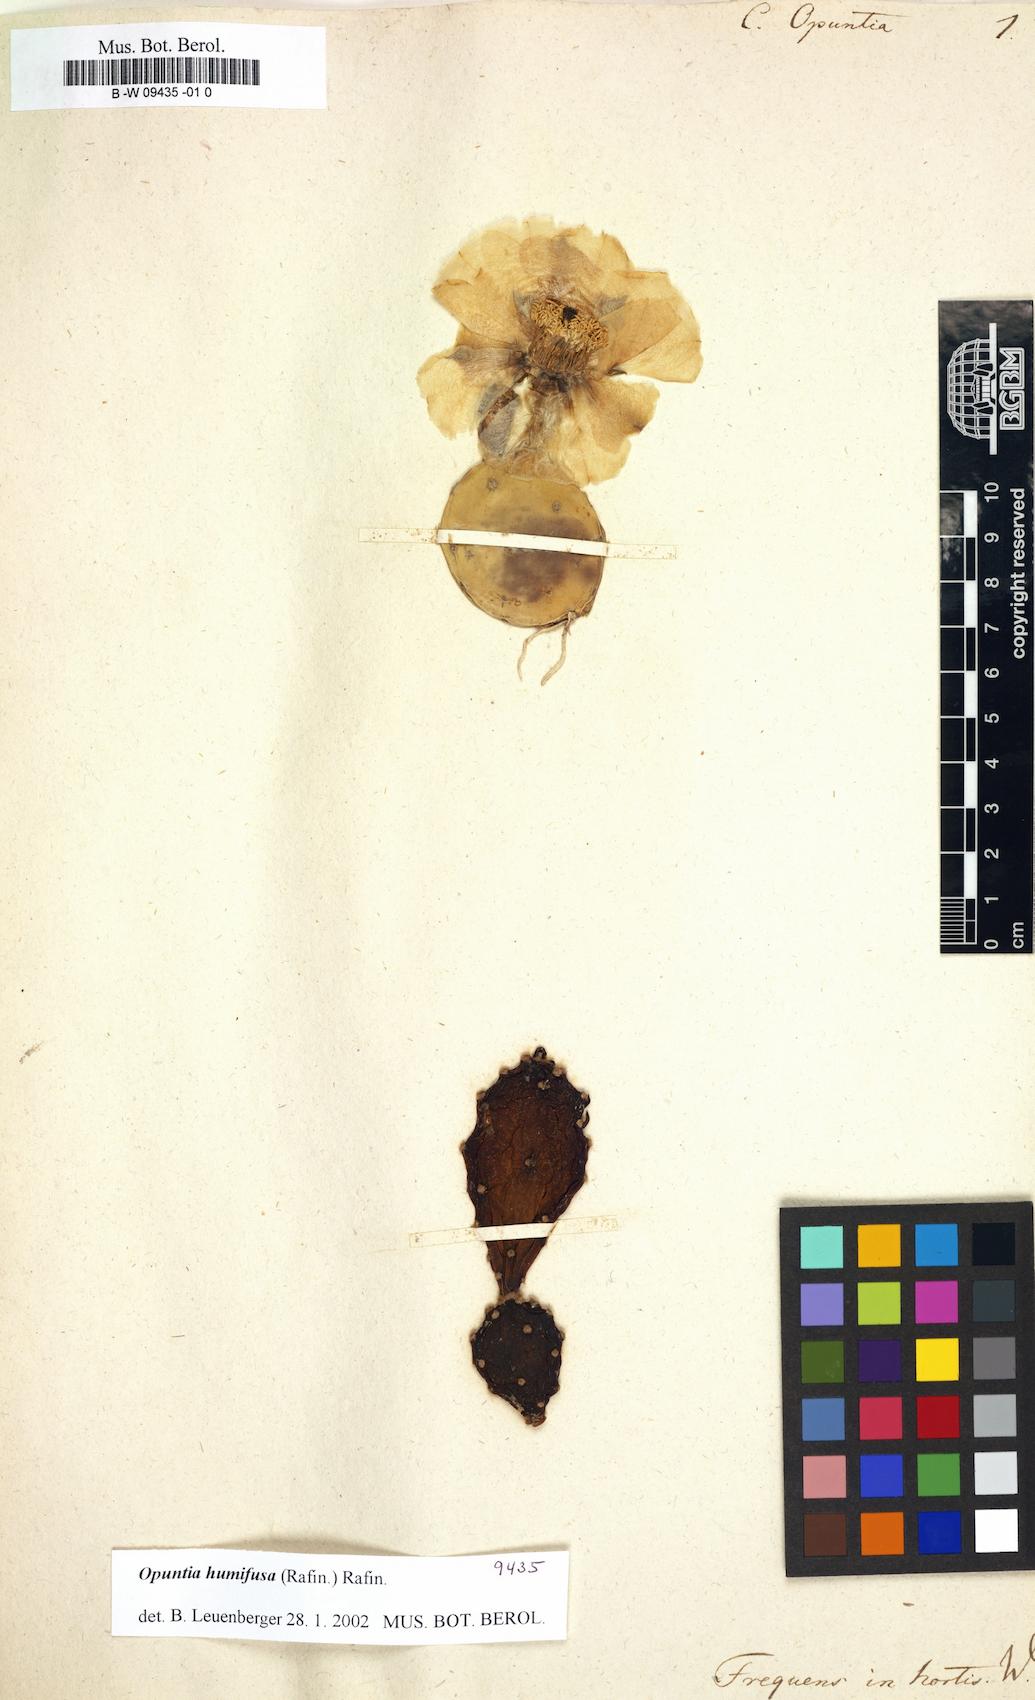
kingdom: Plantae
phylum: Tracheophyta
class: Magnoliopsida
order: Caryophyllales
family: Cactaceae
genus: Cactus
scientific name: Cactus opuntia
